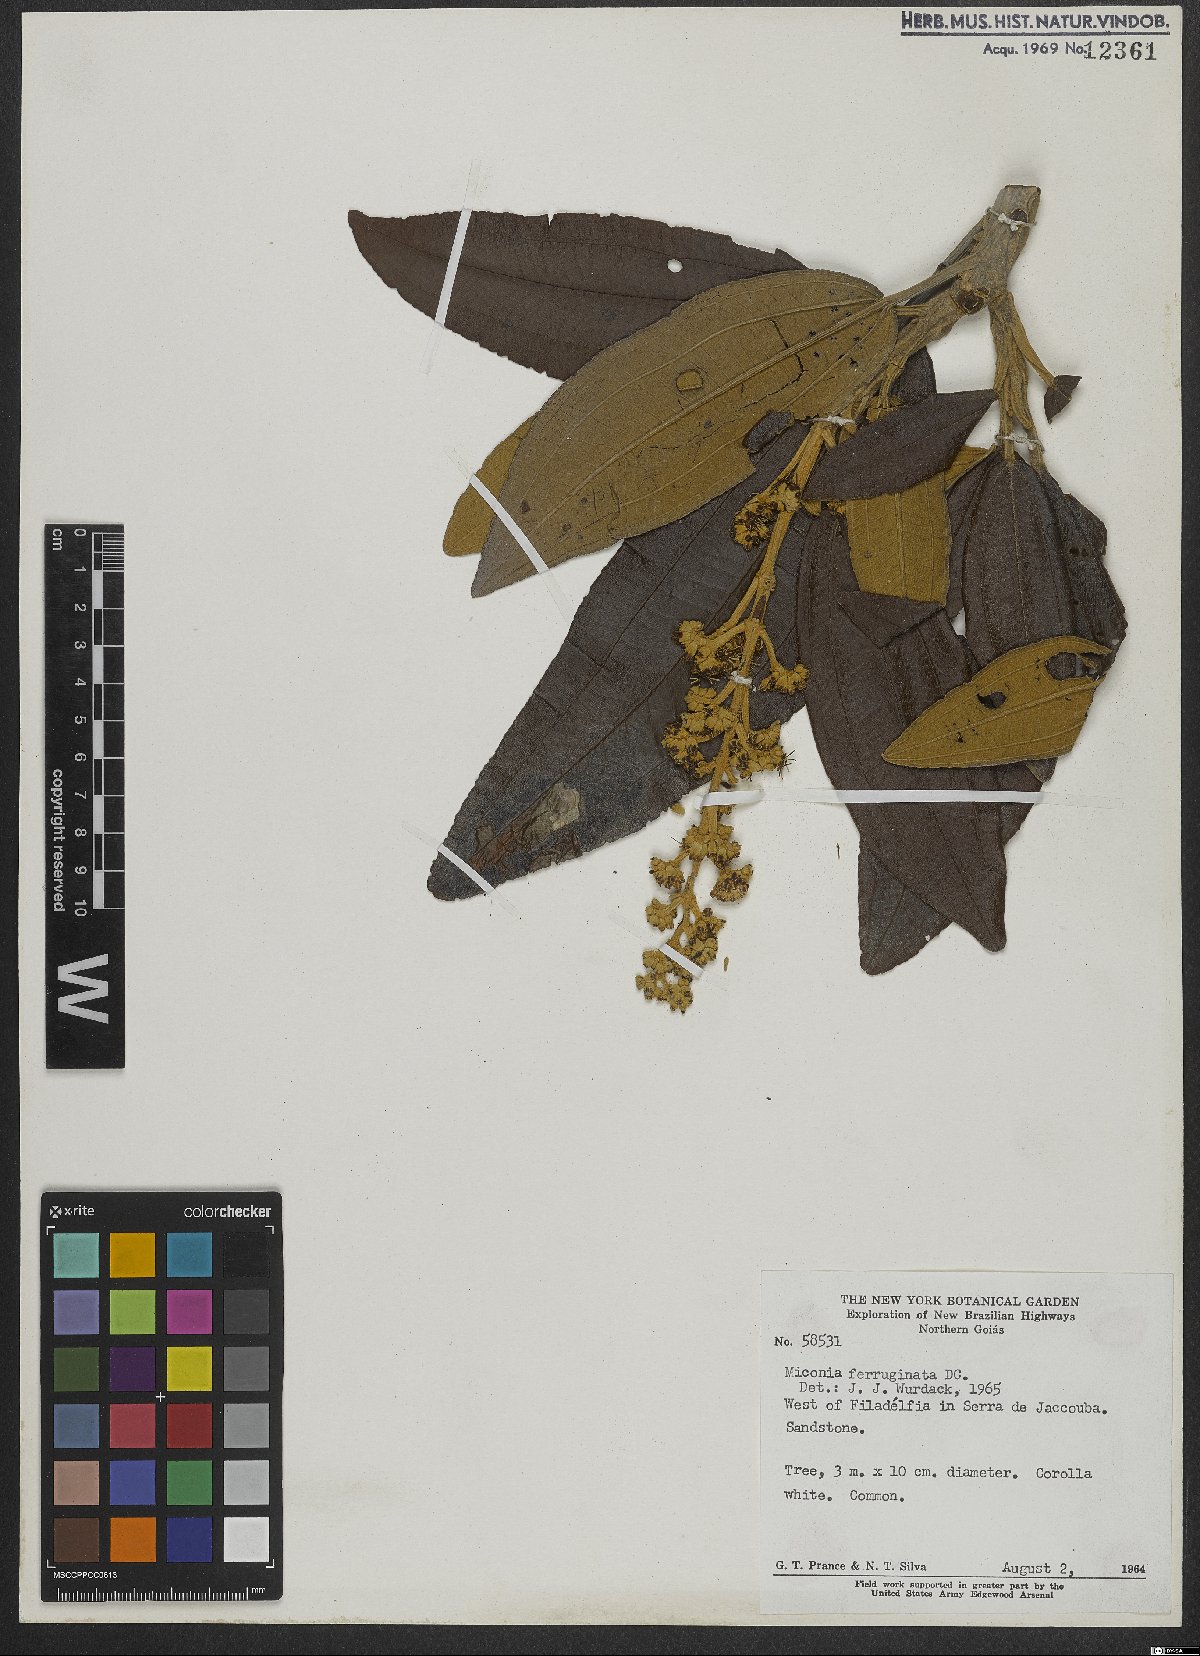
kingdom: Plantae
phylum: Tracheophyta
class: Magnoliopsida
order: Myrtales
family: Melastomataceae
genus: Miconia
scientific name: Miconia ferruginata
